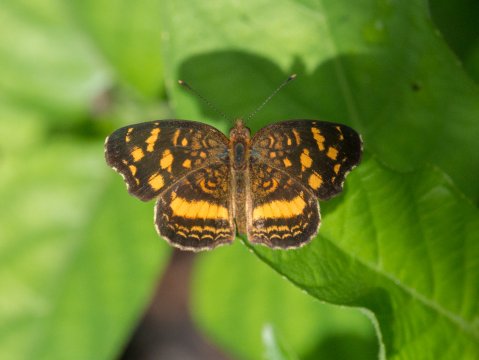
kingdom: Animalia
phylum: Arthropoda
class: Insecta
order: Lepidoptera
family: Nymphalidae
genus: Anthanassa
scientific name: Anthanassa drusilla
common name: Orange-patched Crescent
